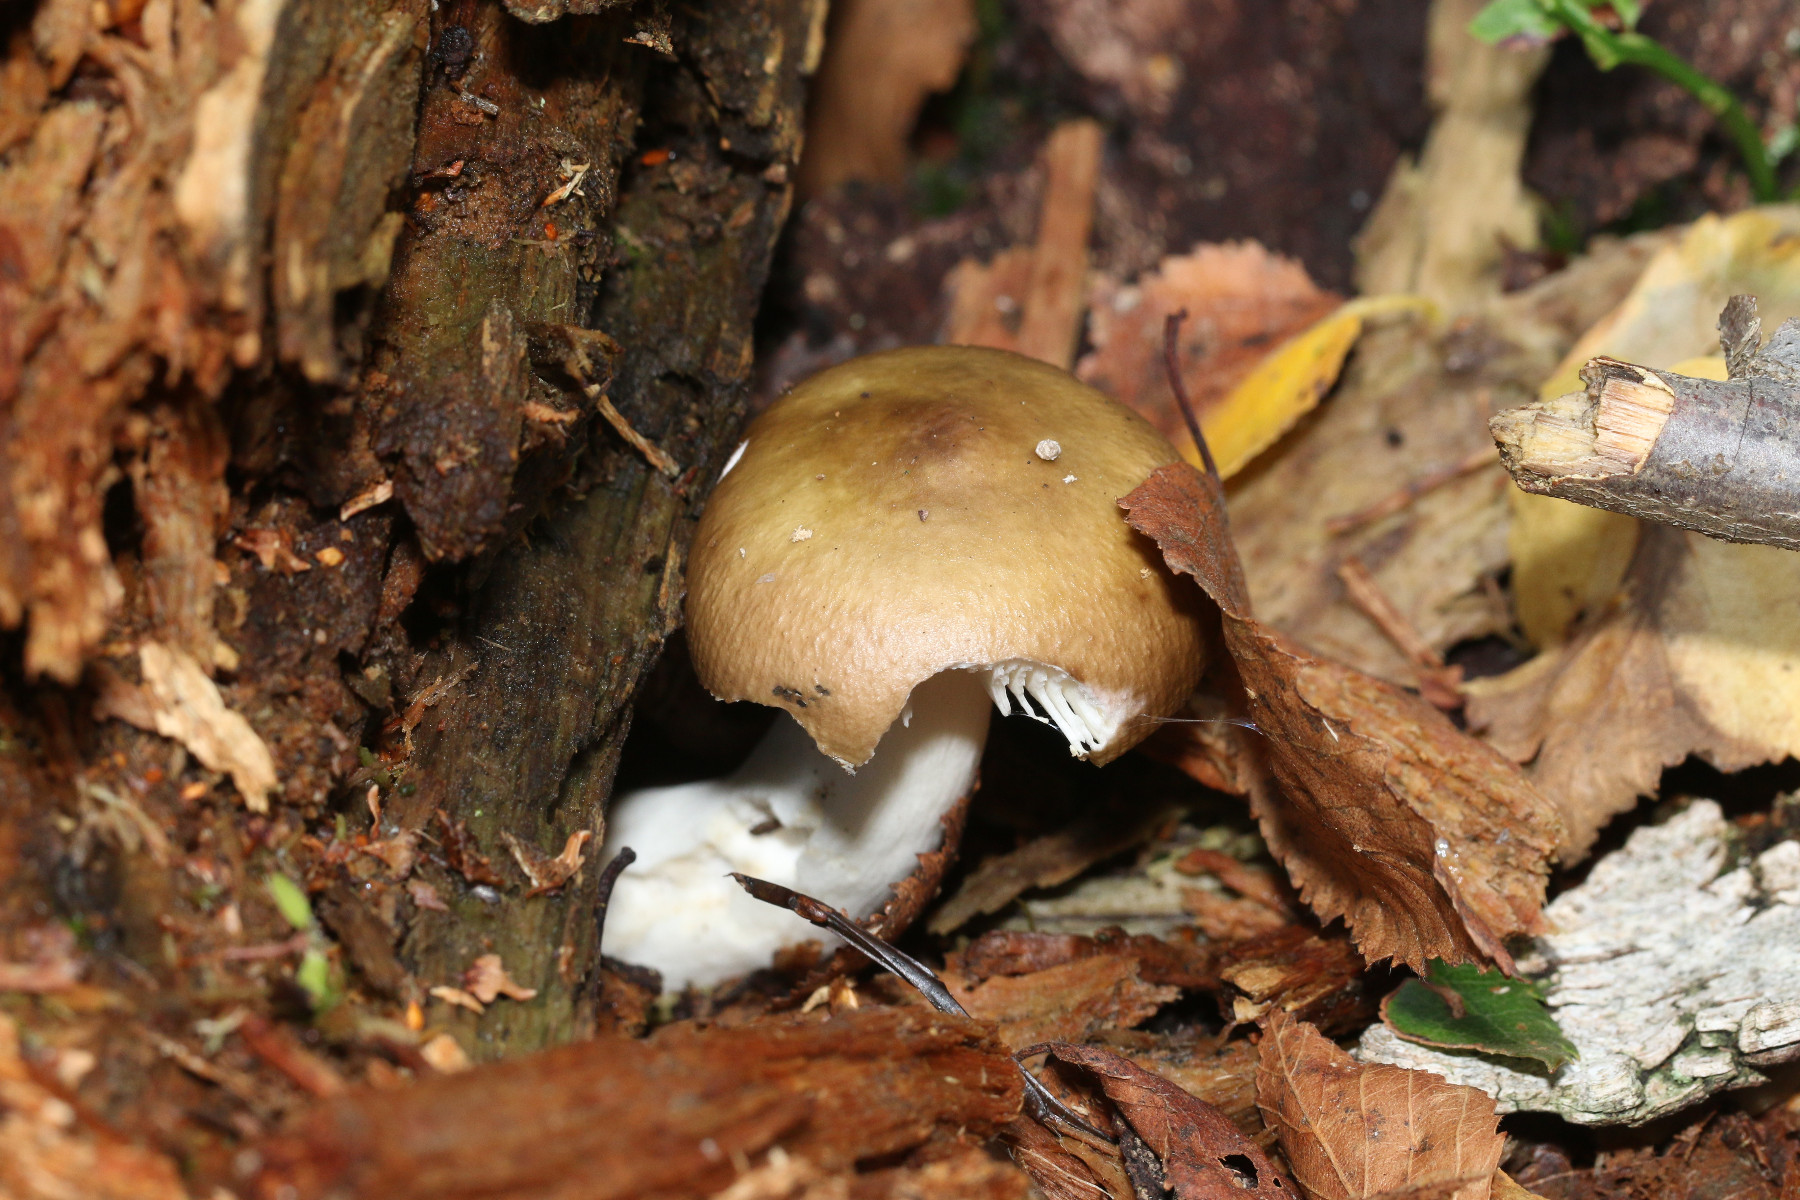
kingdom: Fungi
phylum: Basidiomycota
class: Agaricomycetes
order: Russulales
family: Russulaceae
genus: Russula
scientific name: Russula versicolor
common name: foranderlig skørhat
